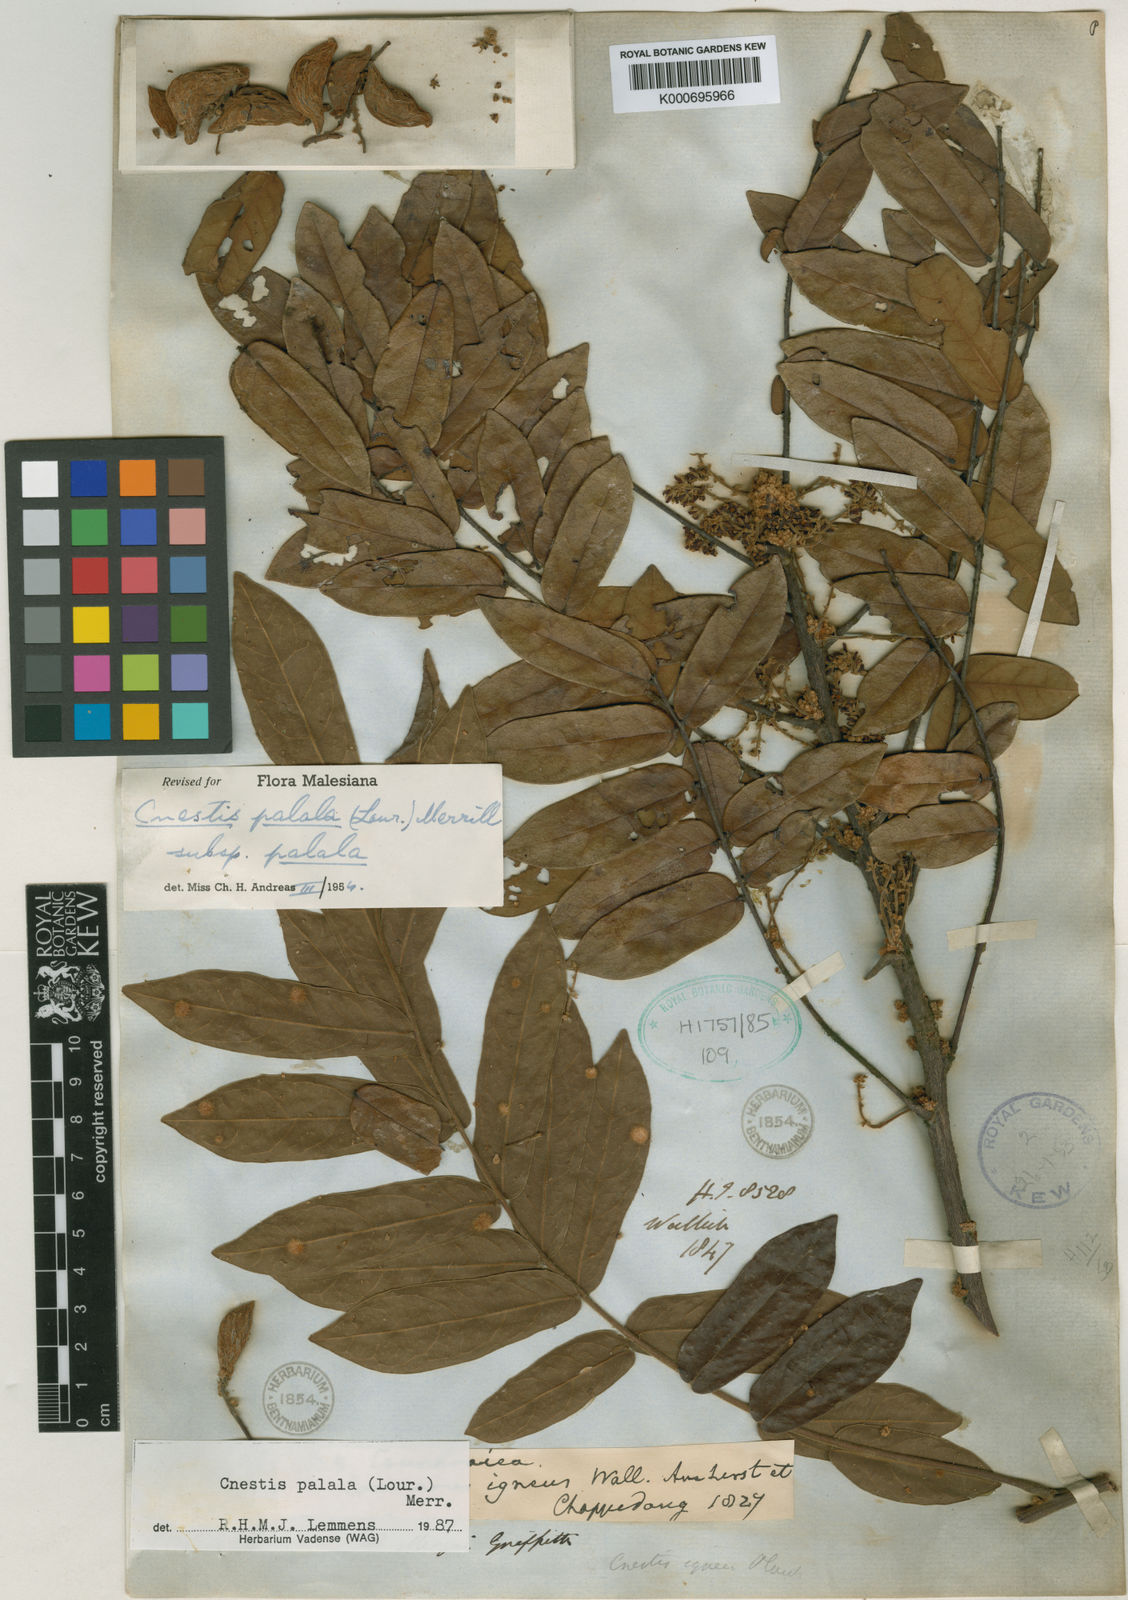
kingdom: Plantae
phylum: Tracheophyta
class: Magnoliopsida
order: Oxalidales
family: Connaraceae
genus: Cnestis
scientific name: Cnestis palala
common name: Stinging-hair cnestis
